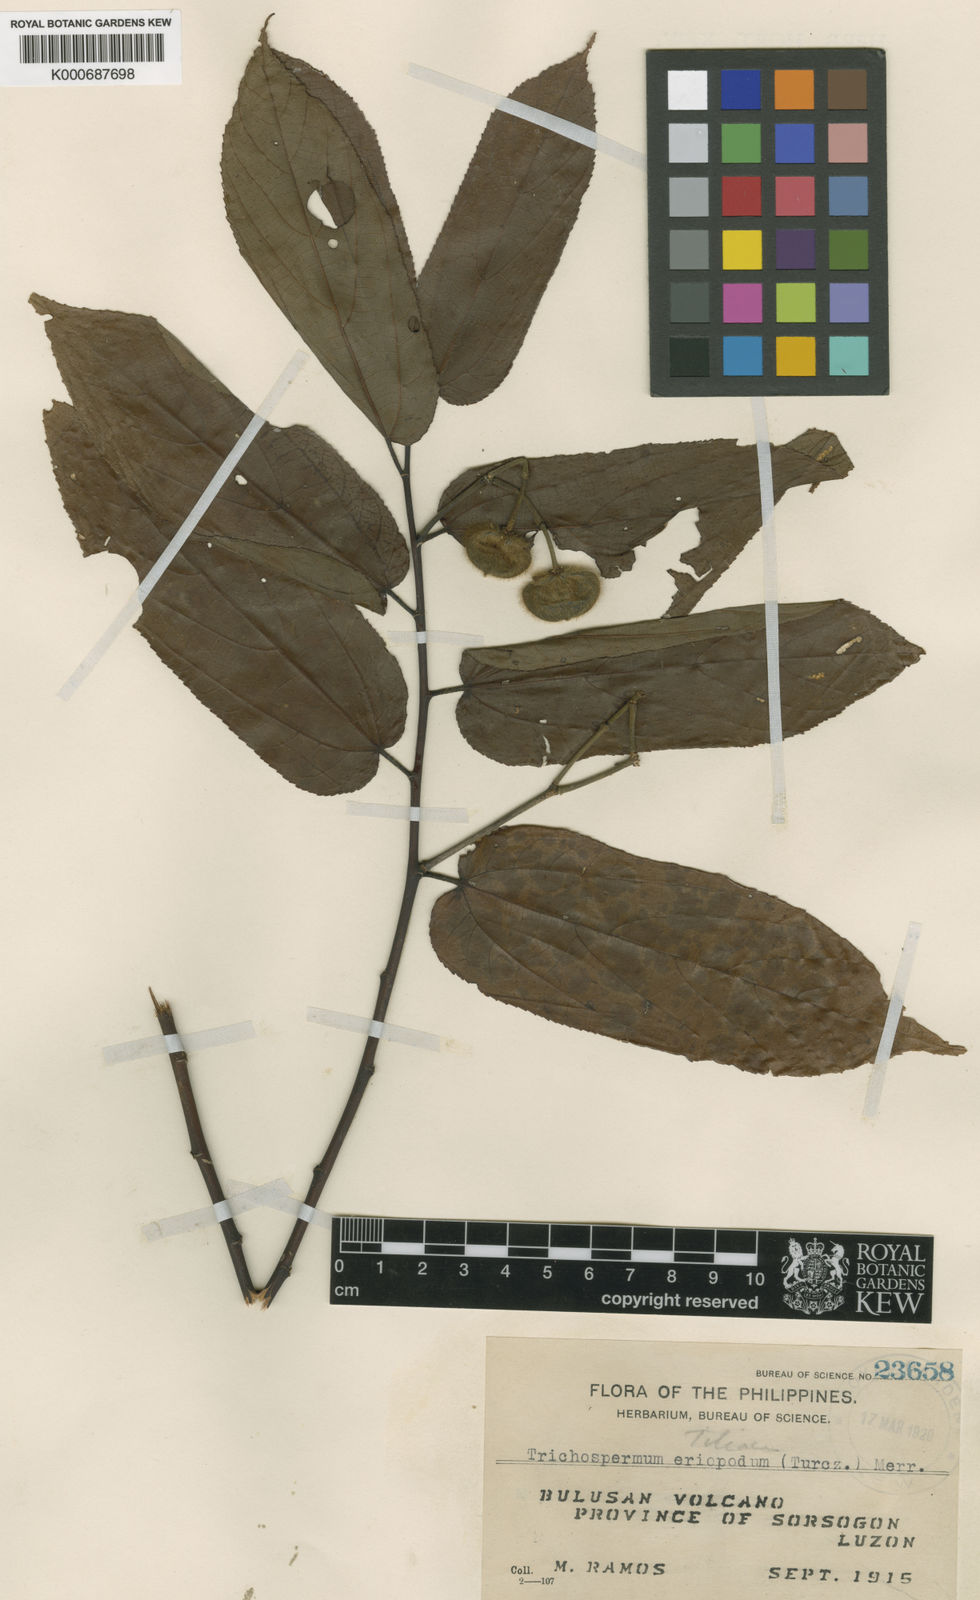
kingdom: Plantae
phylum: Tracheophyta
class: Magnoliopsida
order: Malvales
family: Malvaceae
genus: Trichospermum
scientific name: Trichospermum eriopodum
